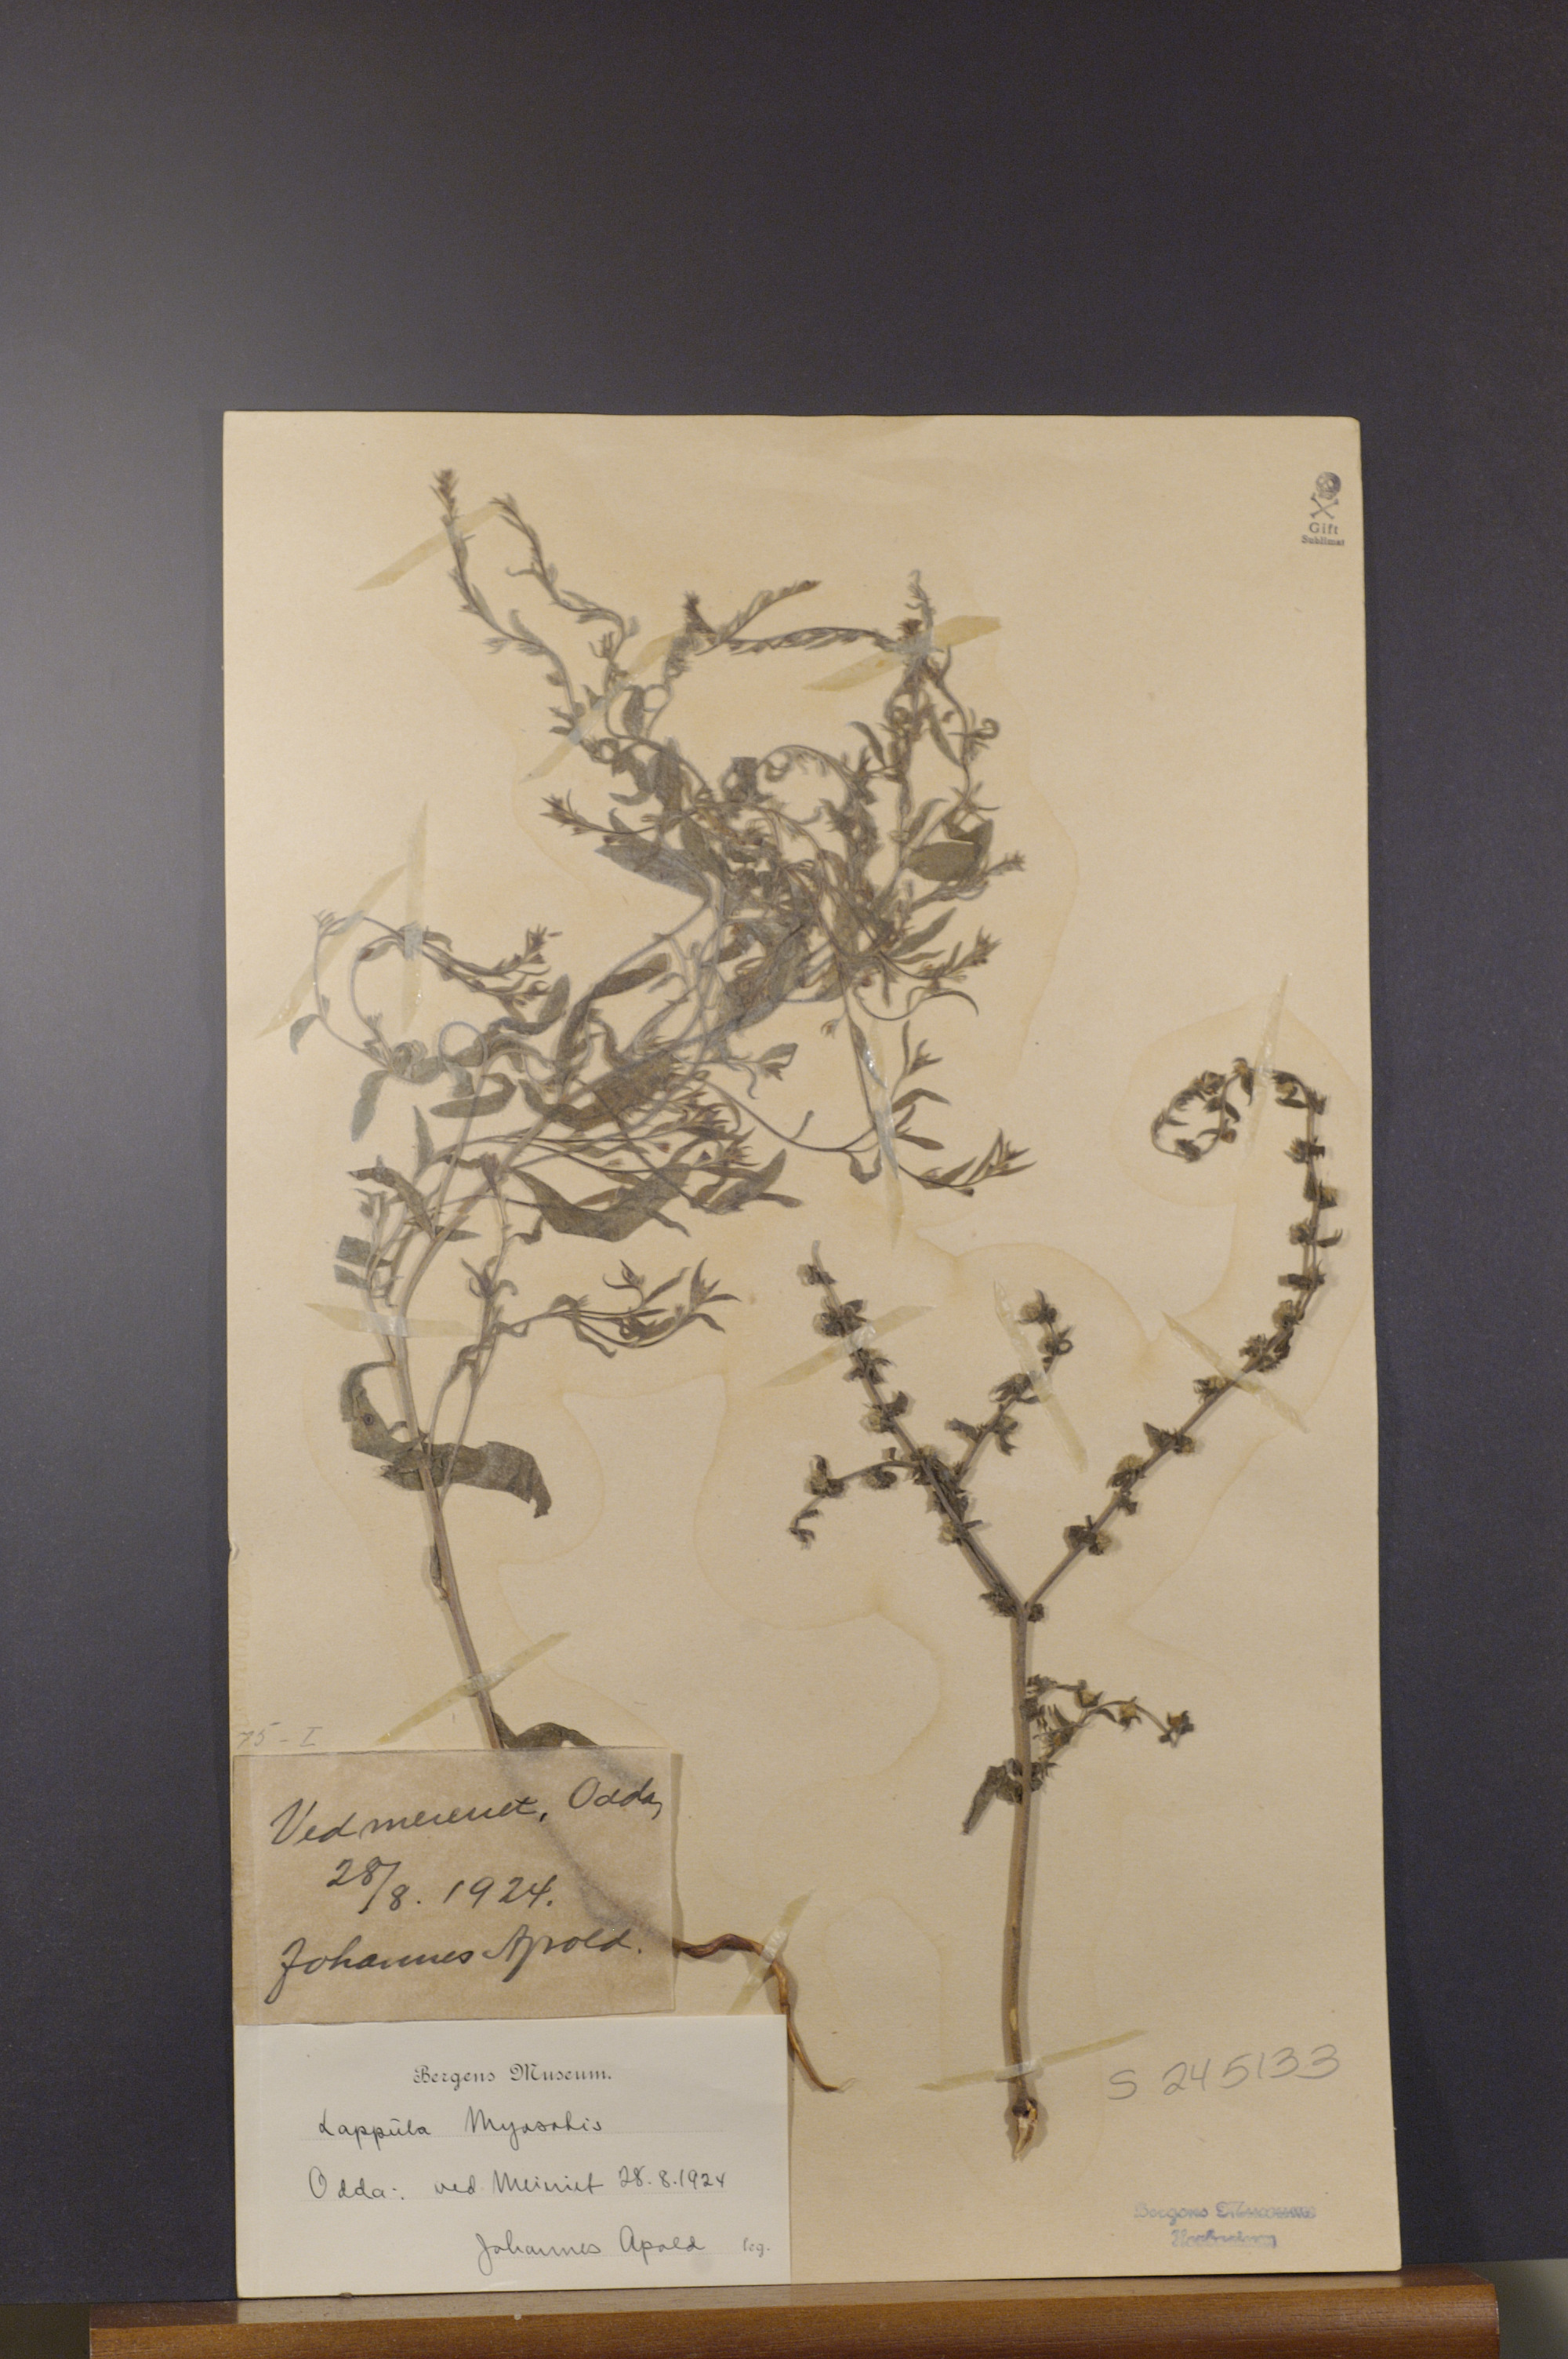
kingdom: Plantae
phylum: Tracheophyta
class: Magnoliopsida
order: Boraginales
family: Boraginaceae
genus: Lappula
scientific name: Lappula squarrosa
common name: European stickseed
